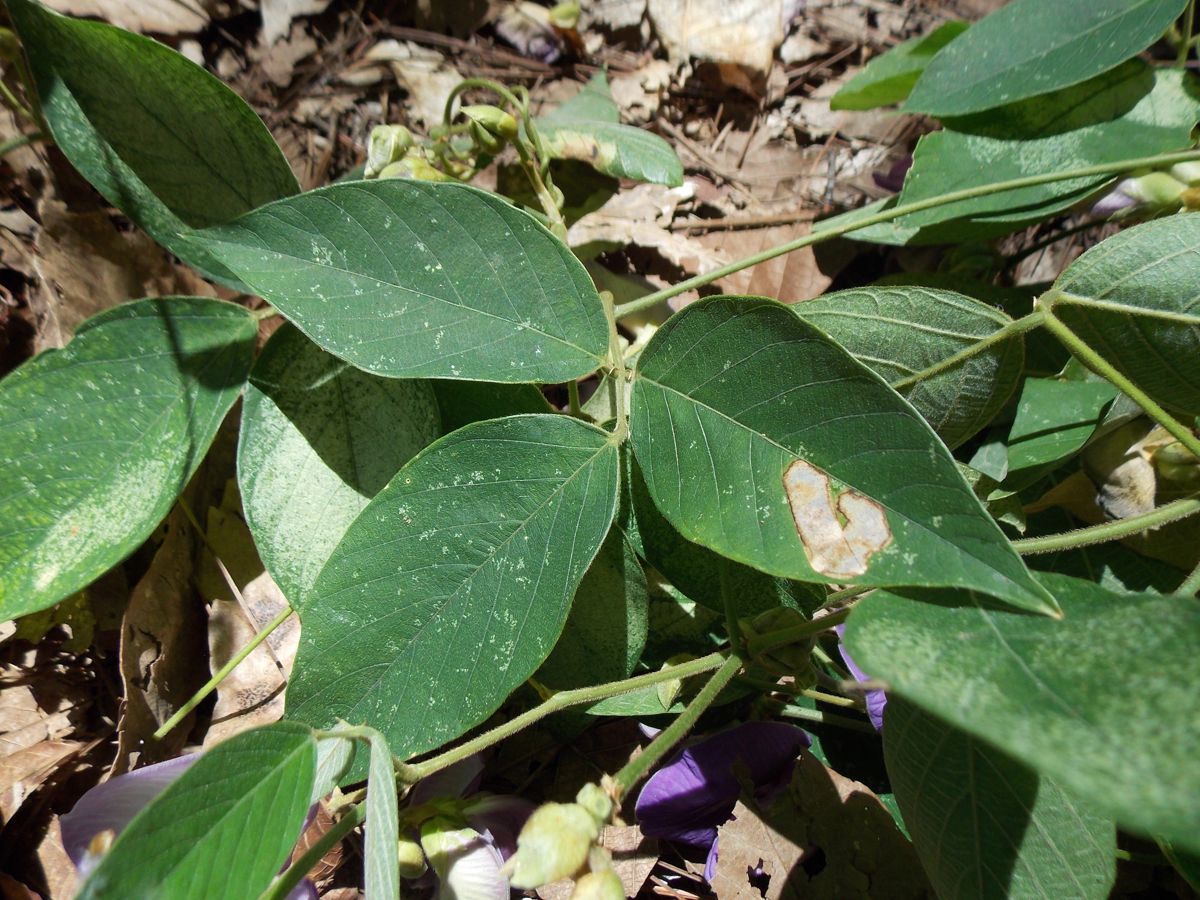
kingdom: Plantae
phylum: Tracheophyta
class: Magnoliopsida
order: Fabales
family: Fabaceae
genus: Centrosema
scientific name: Centrosema pubescens
